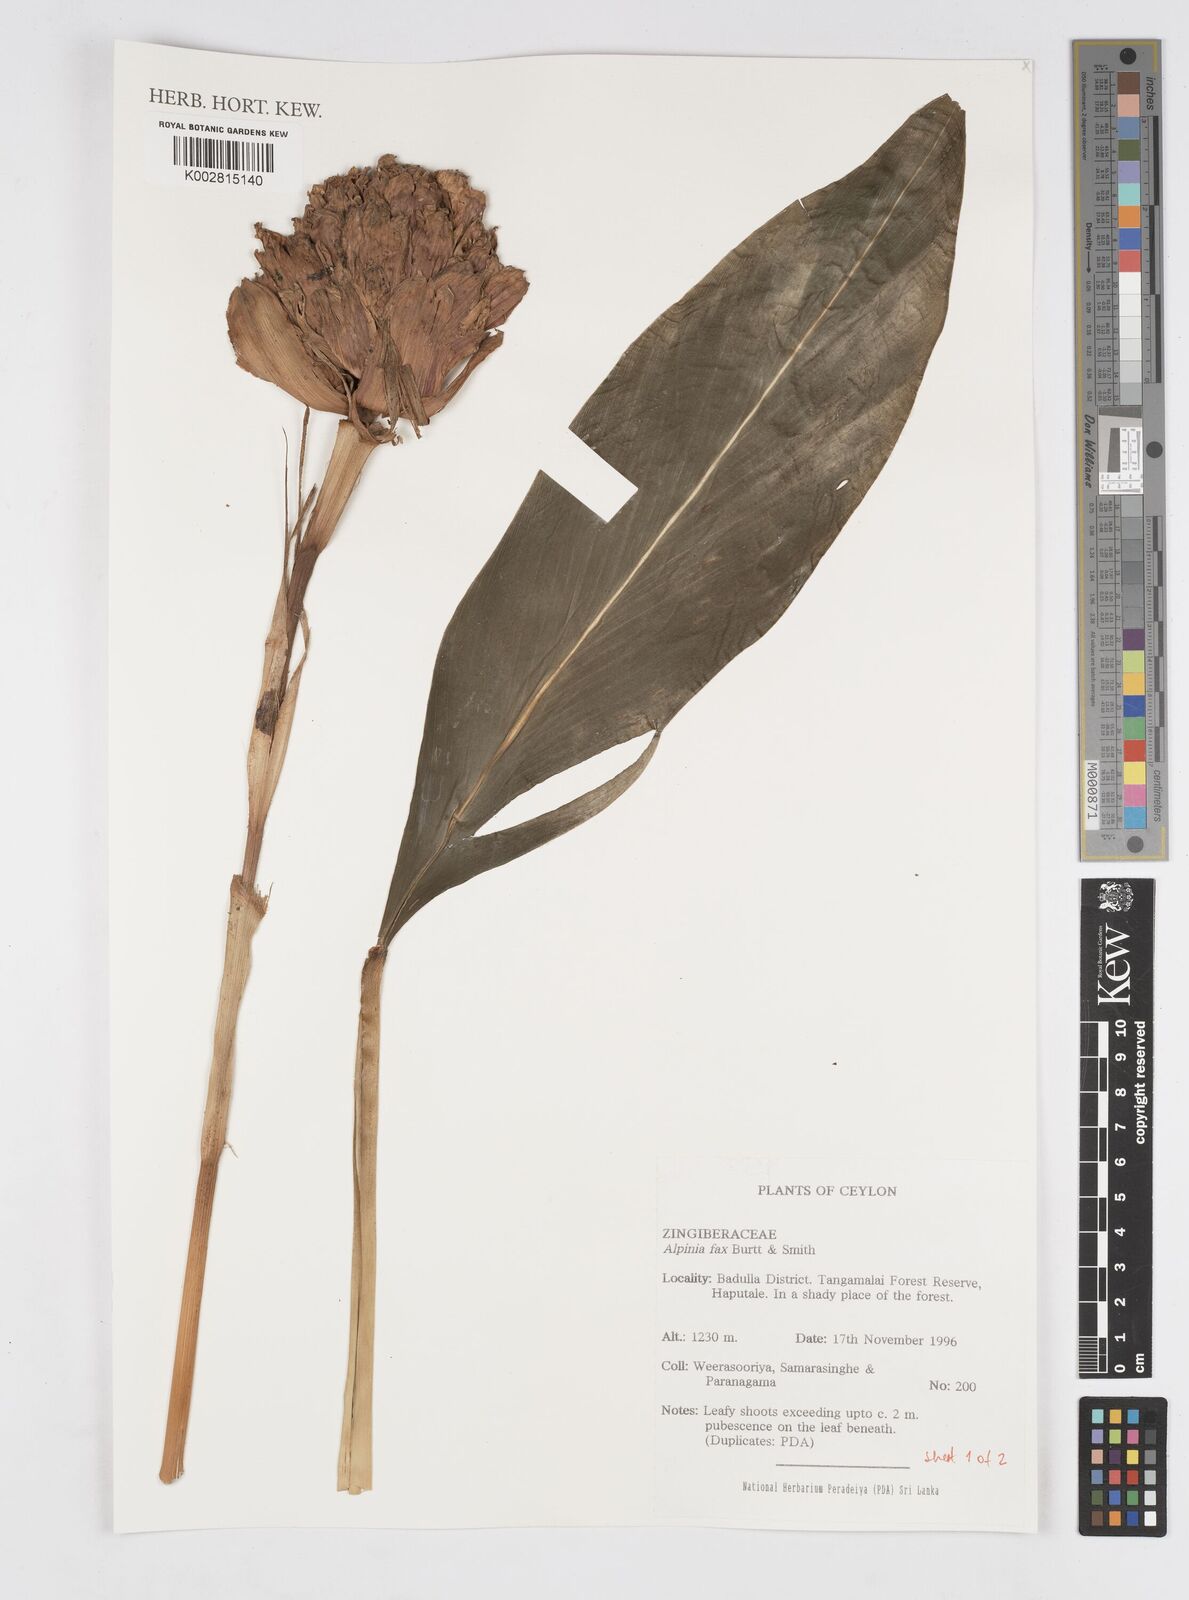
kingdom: Plantae
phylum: Tracheophyta
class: Liliopsida
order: Zingiberales
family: Zingiberaceae
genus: Alpinia
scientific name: Alpinia fax
